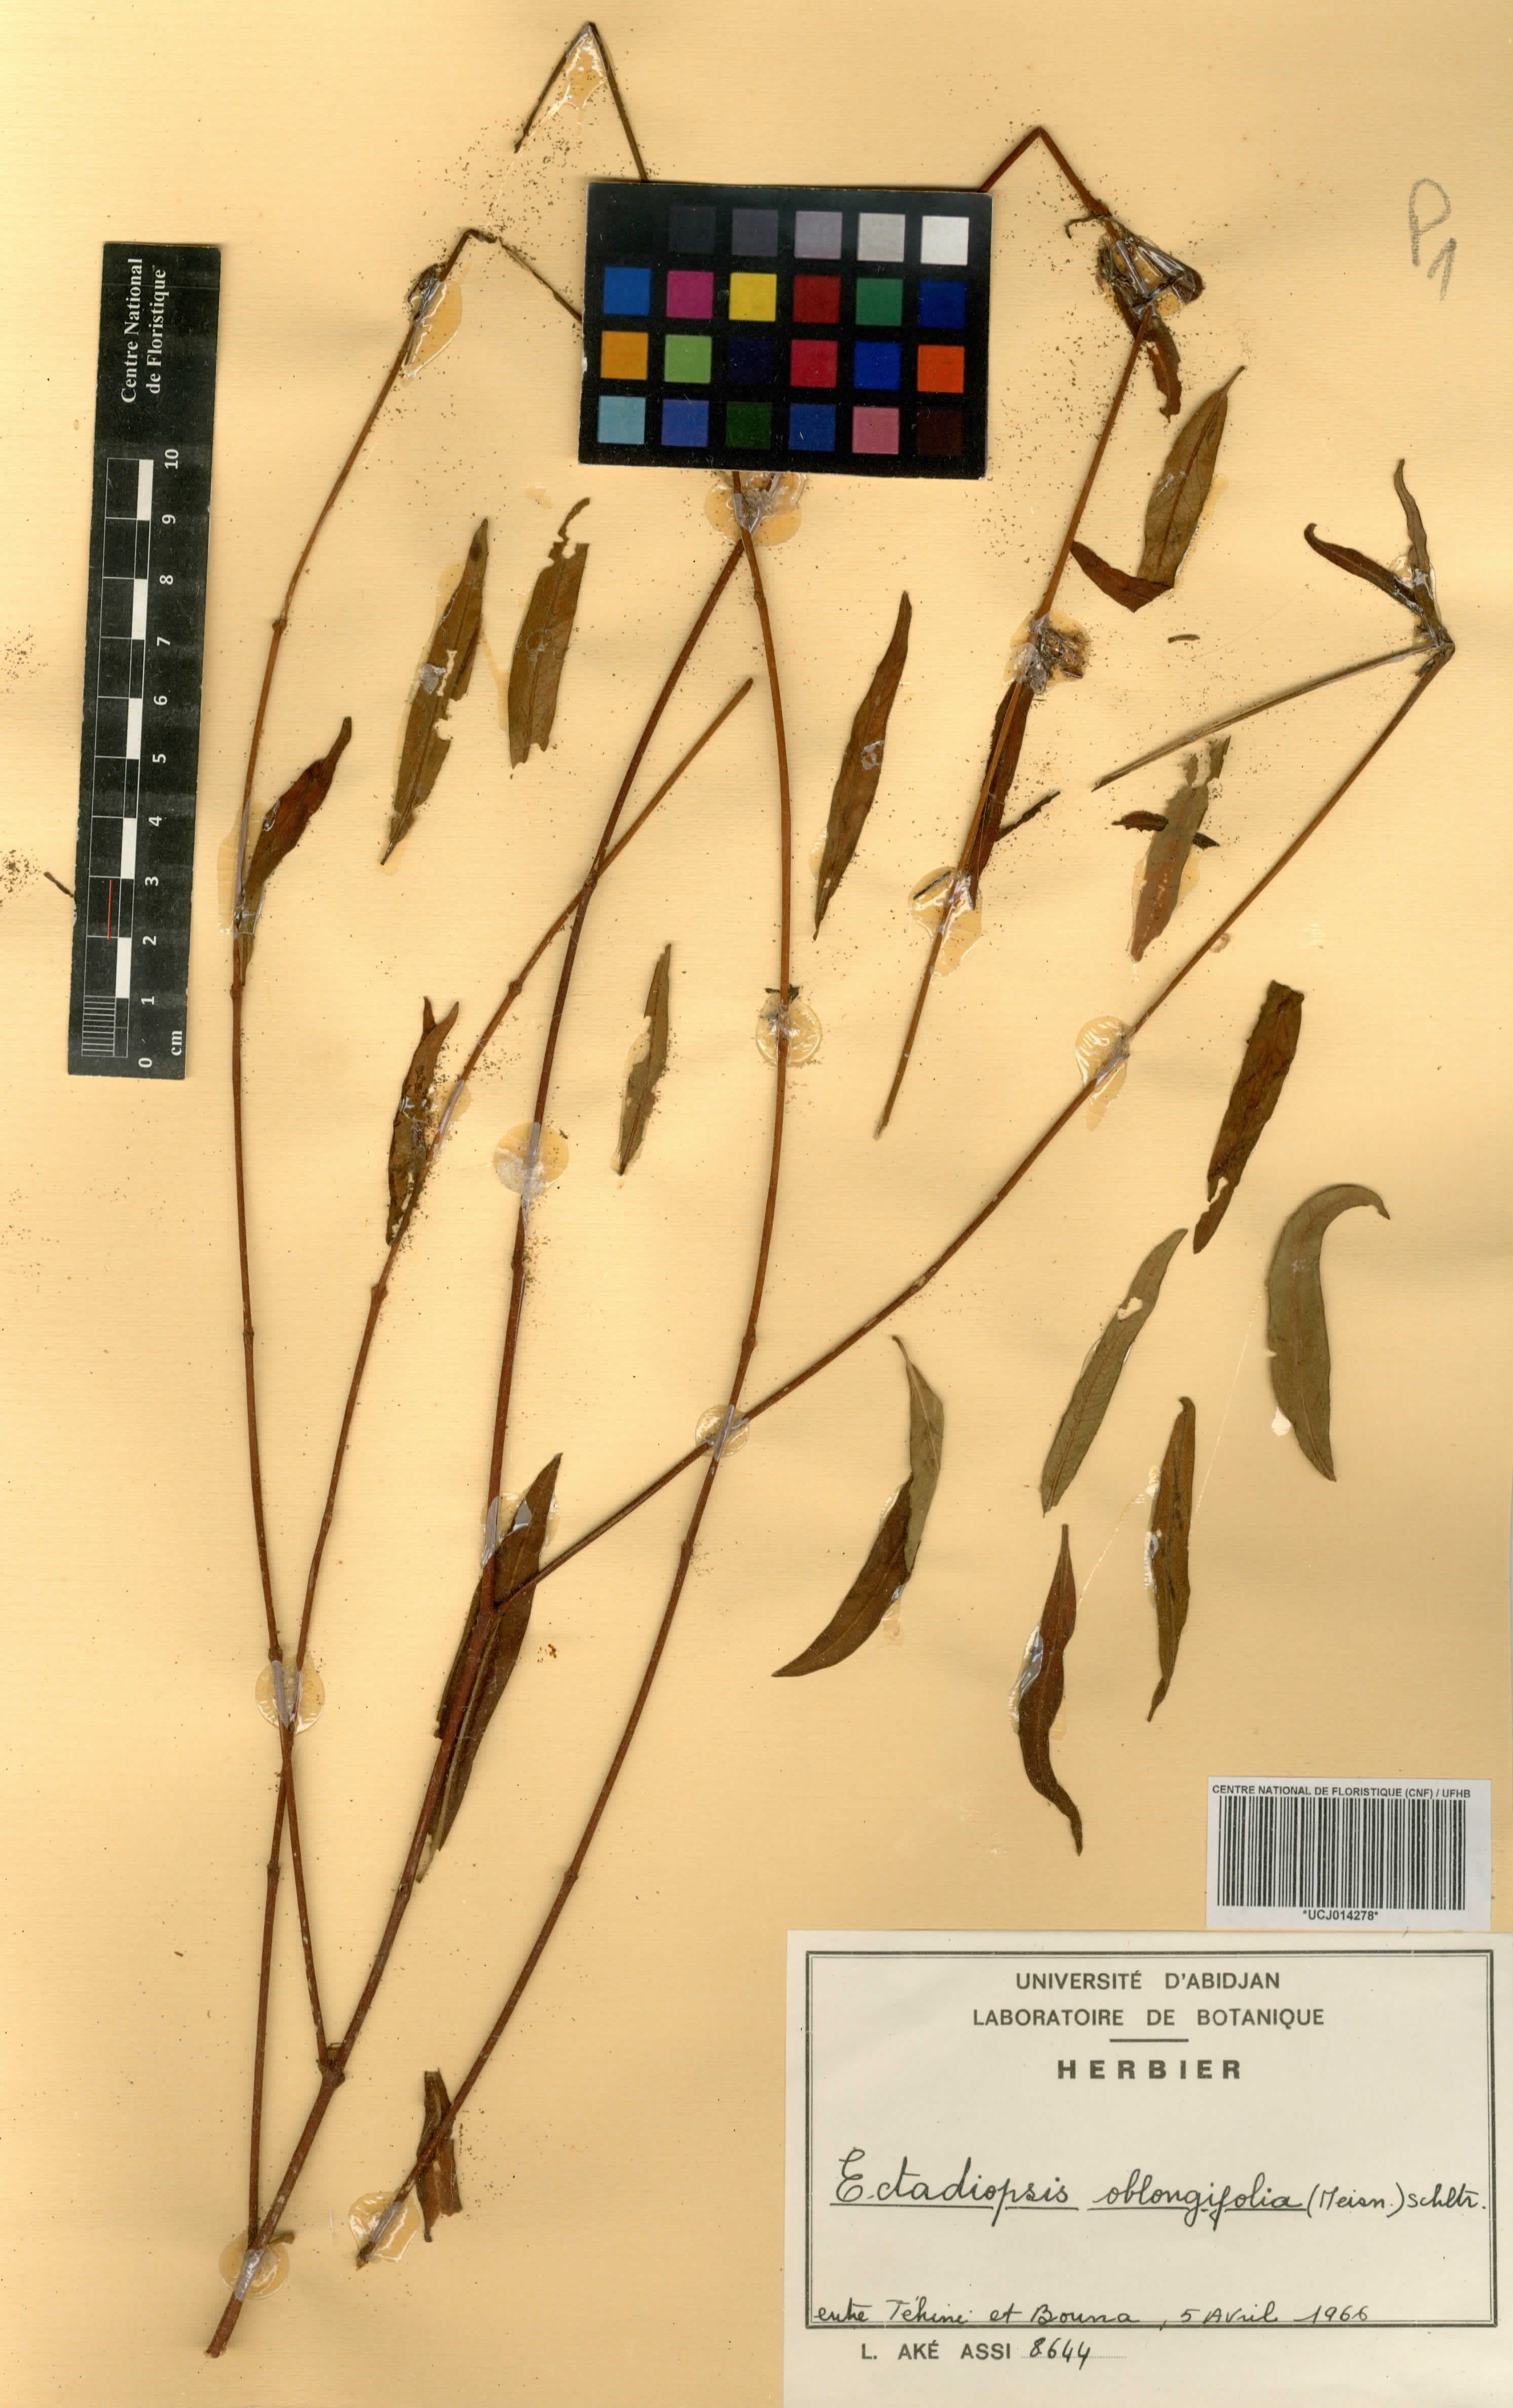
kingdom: Plantae
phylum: Tracheophyta
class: Magnoliopsida
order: Gentianales
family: Apocynaceae
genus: Cryptolepis
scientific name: Cryptolepis oblongifolia
